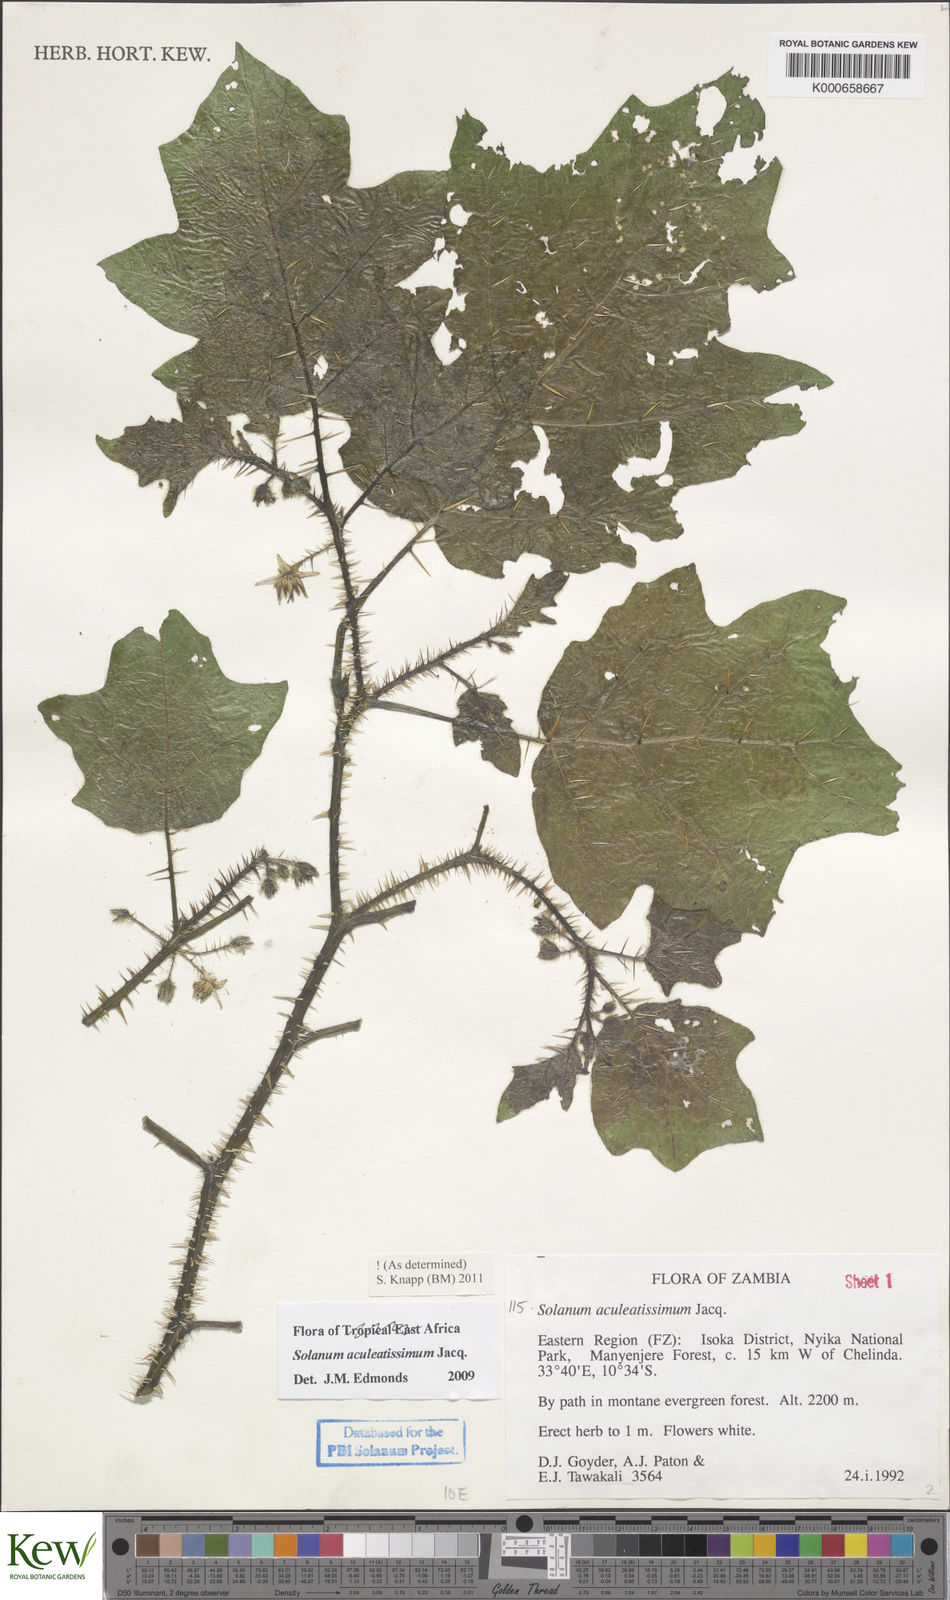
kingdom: Plantae
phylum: Tracheophyta
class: Magnoliopsida
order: Solanales
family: Solanaceae
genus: Solanum
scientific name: Solanum aculeatissimum
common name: Dutch eggplant
